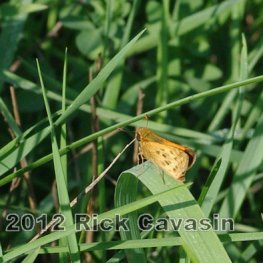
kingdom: Animalia
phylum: Arthropoda
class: Insecta
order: Lepidoptera
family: Hesperiidae
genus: Hylephila
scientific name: Hylephila phyleus
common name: Fiery Skipper
